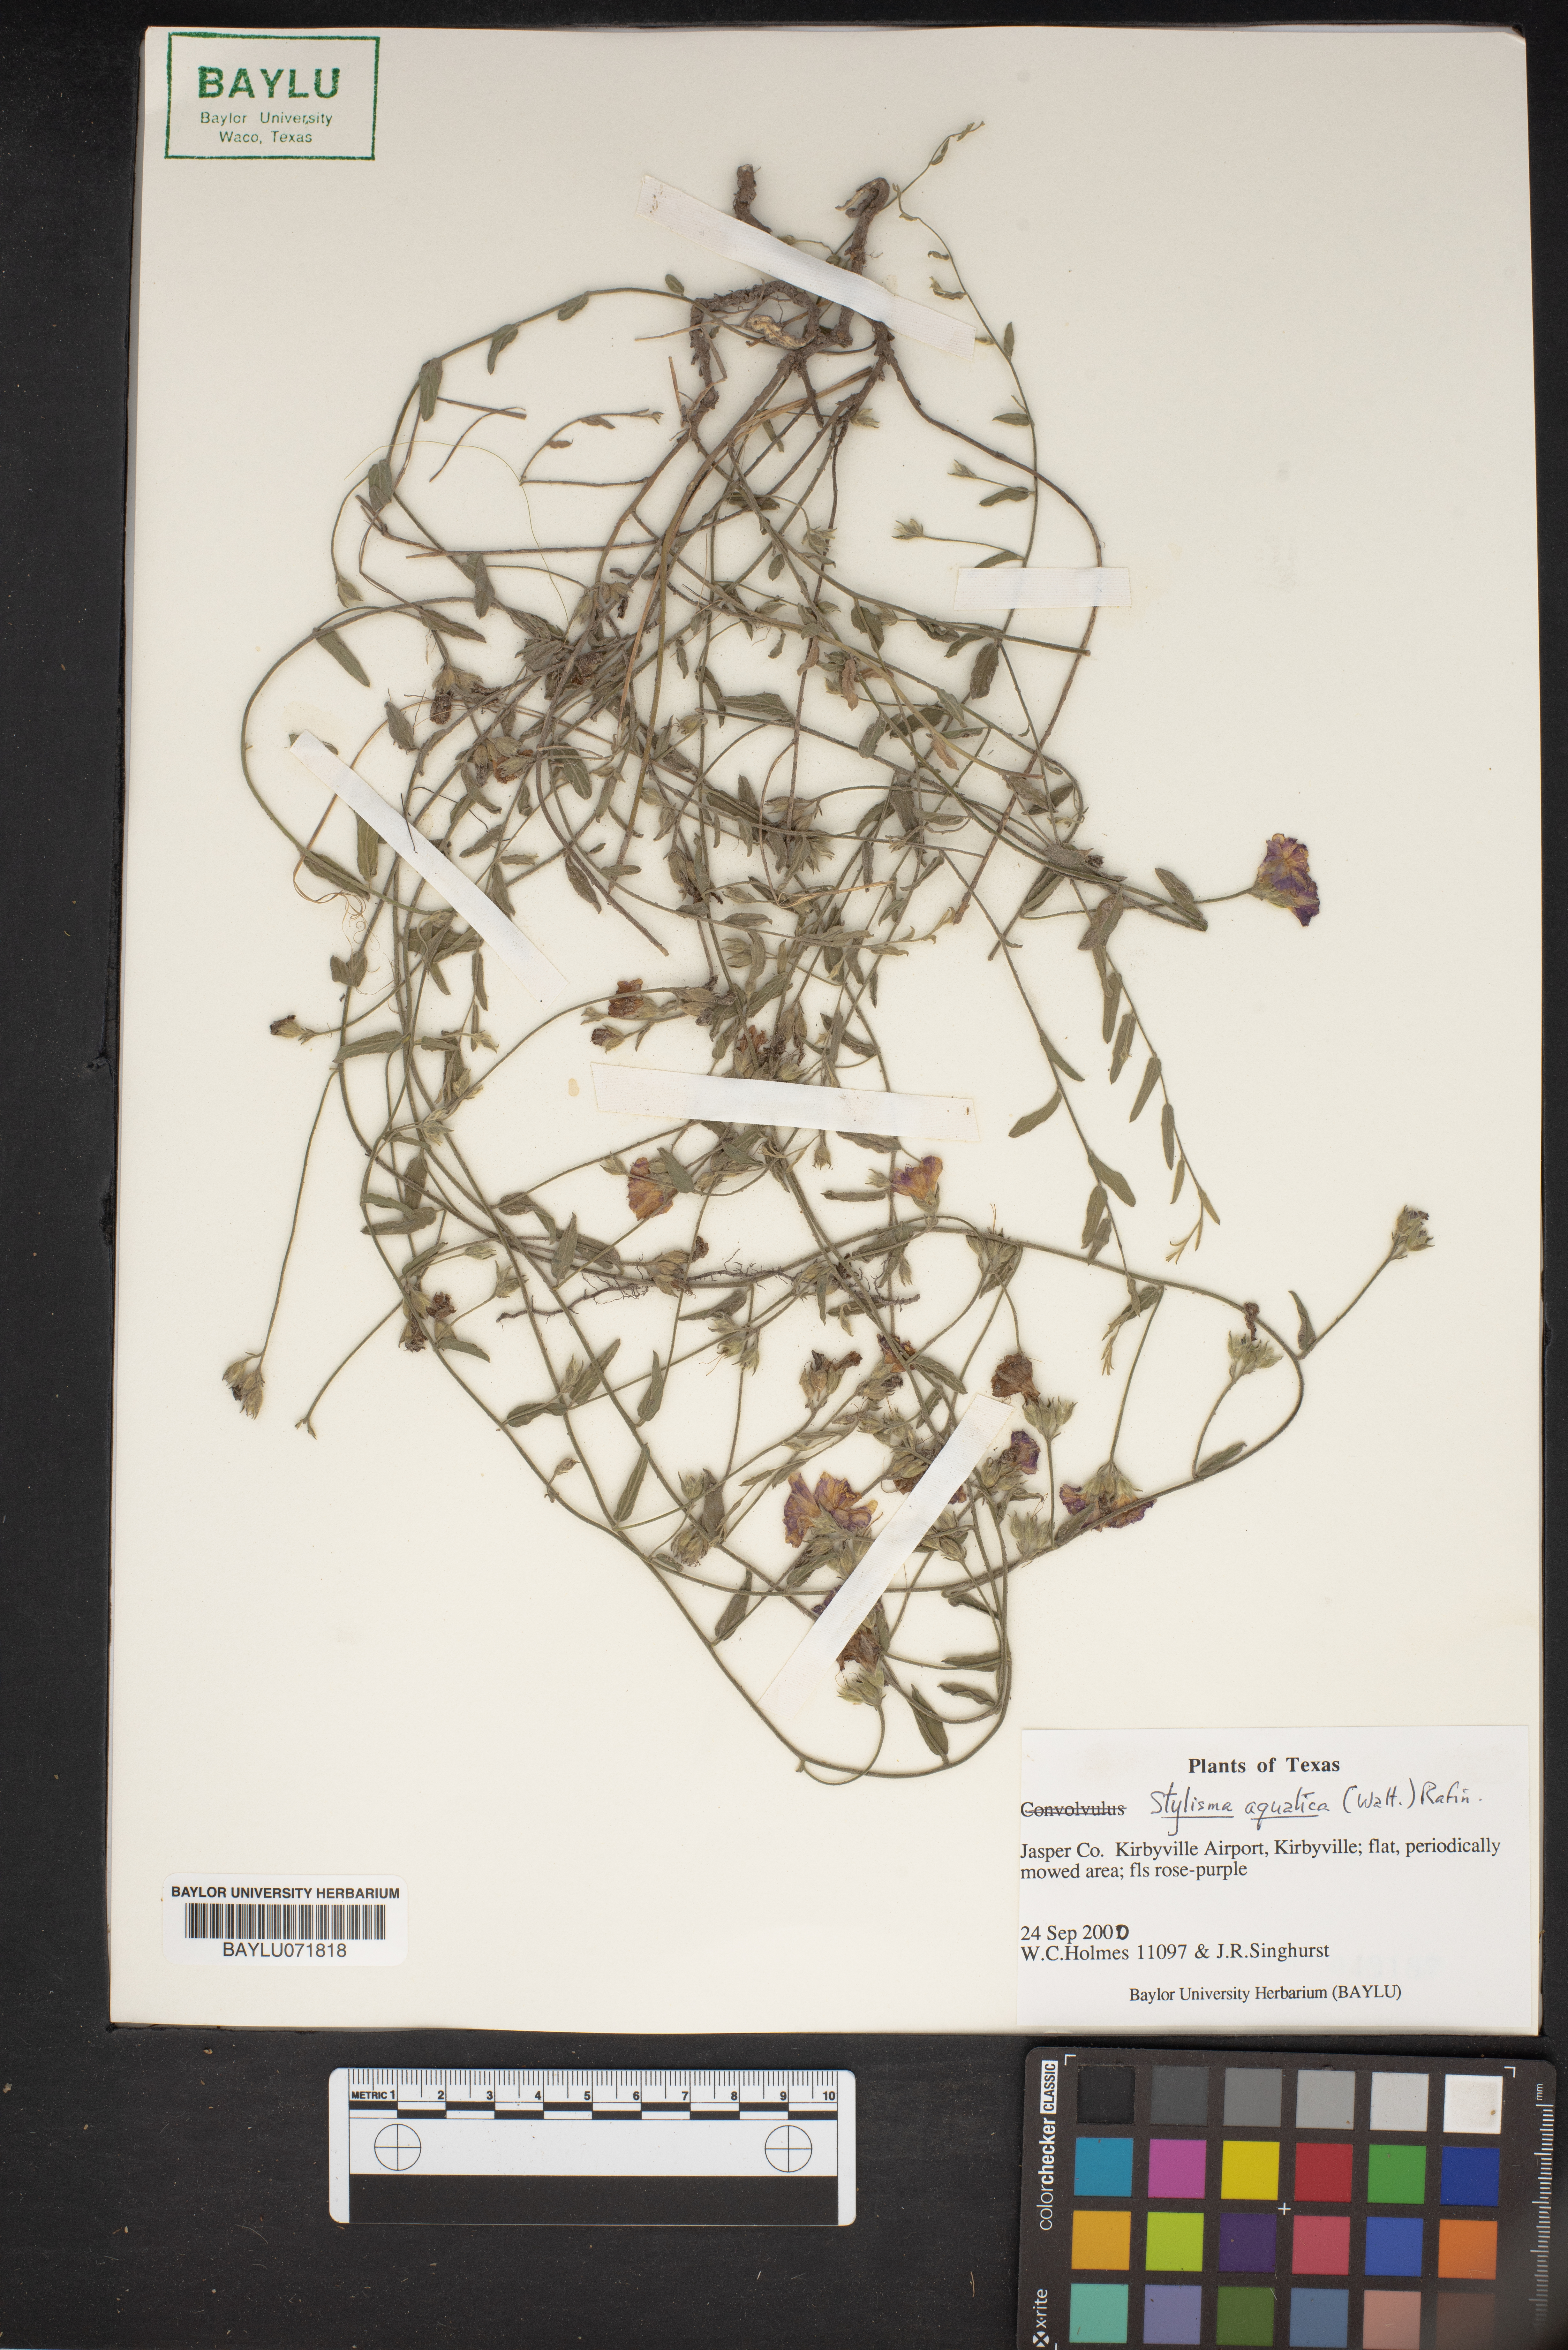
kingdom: Plantae
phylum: Tracheophyta
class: Magnoliopsida
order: Solanales
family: Convolvulaceae
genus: Stylisma
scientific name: Stylisma aquatica
